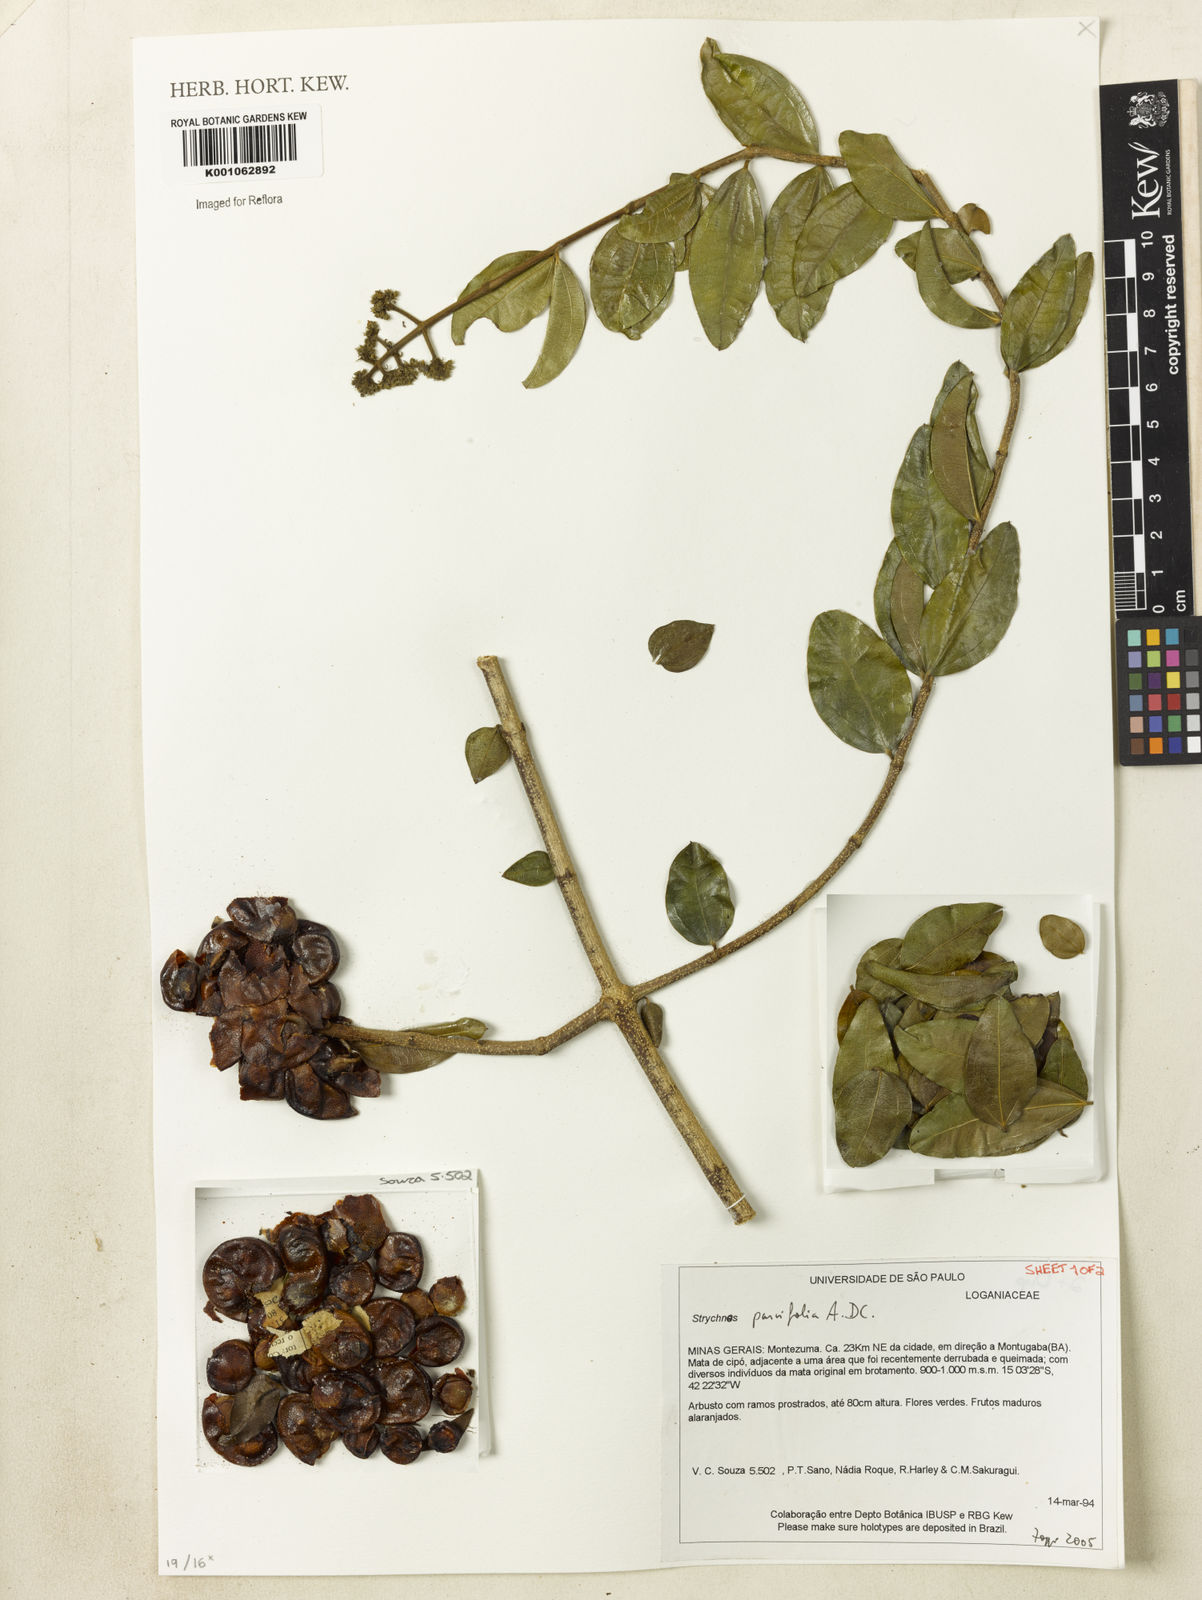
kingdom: Plantae
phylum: Tracheophyta
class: Magnoliopsida
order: Gentianales
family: Loganiaceae
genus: Strychnos
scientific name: Strychnos parvifolia
